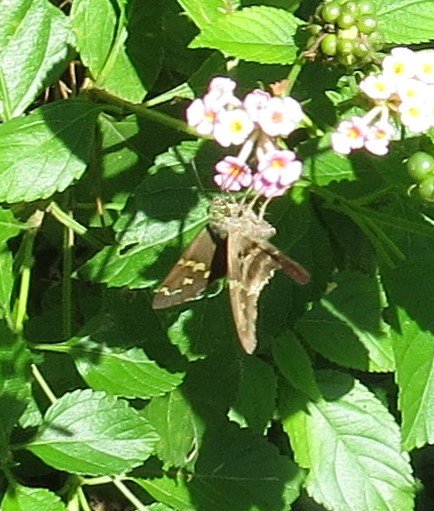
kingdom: Animalia
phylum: Arthropoda
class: Insecta
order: Lepidoptera
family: Hesperiidae
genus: Urbanus
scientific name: Urbanus proteus
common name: Long-tailed Skipper
